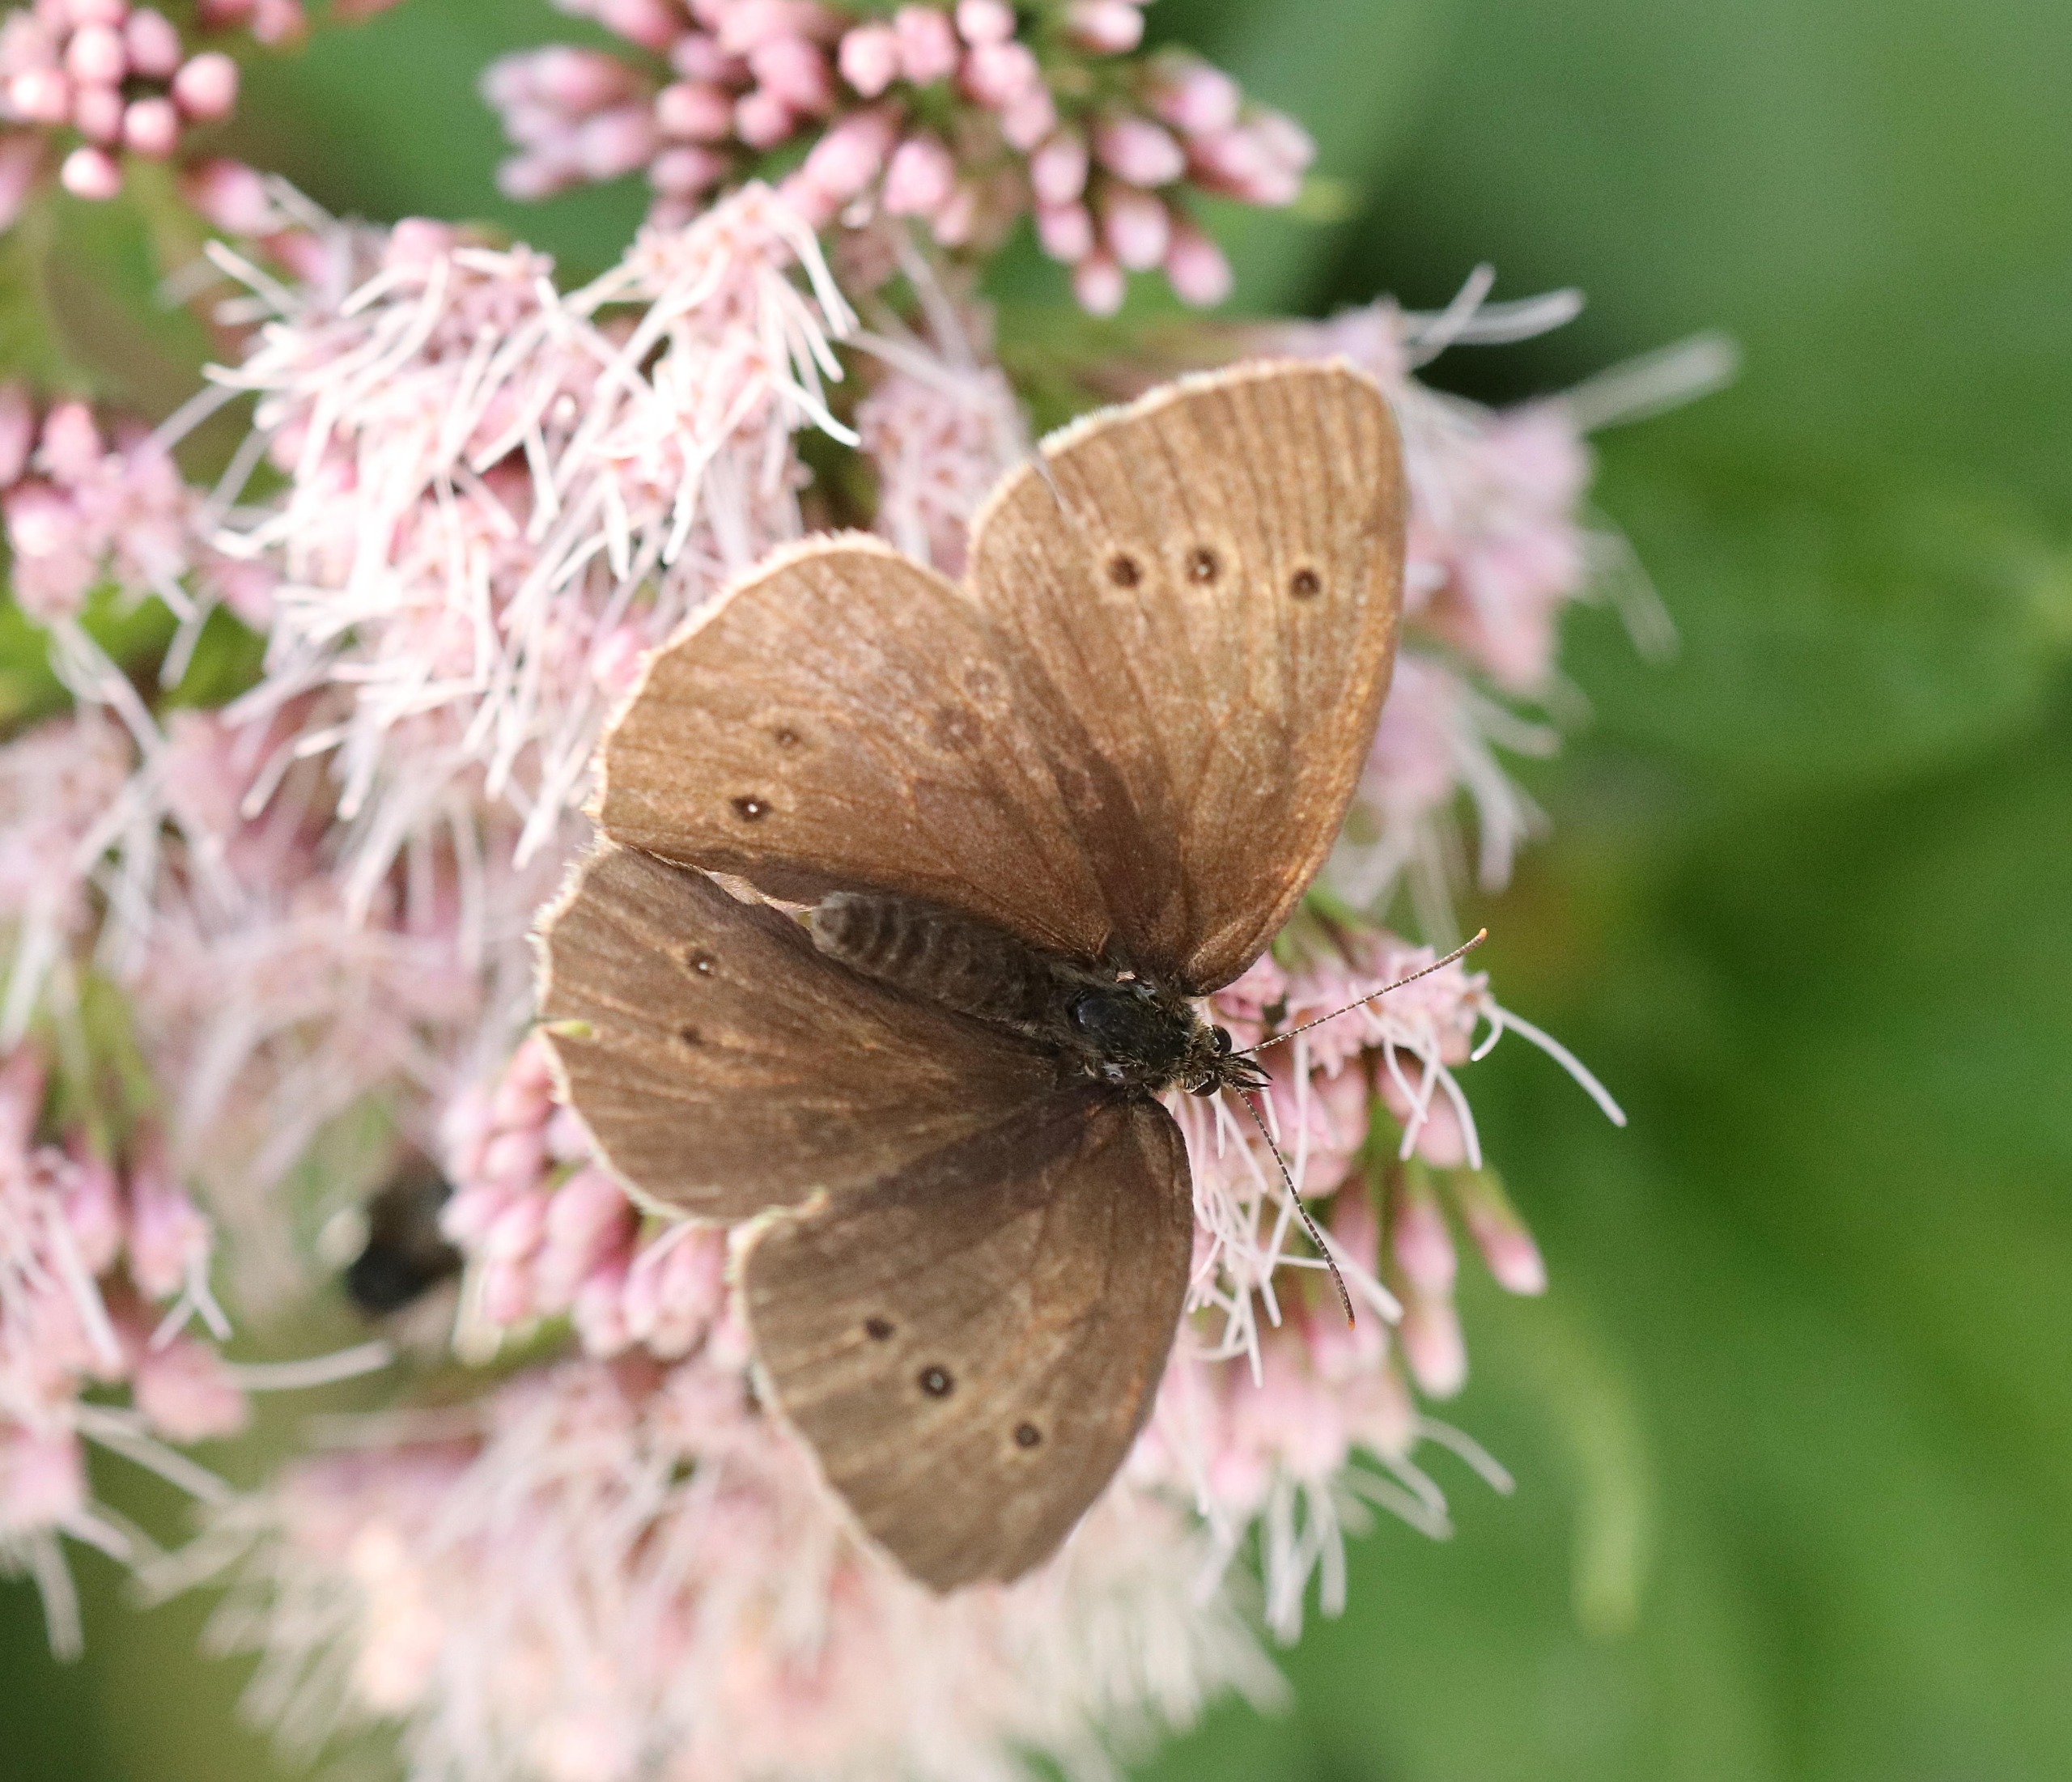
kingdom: Animalia
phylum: Arthropoda
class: Insecta
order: Lepidoptera
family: Nymphalidae
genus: Aphantopus
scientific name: Aphantopus hyperantus
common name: Engrandøje
